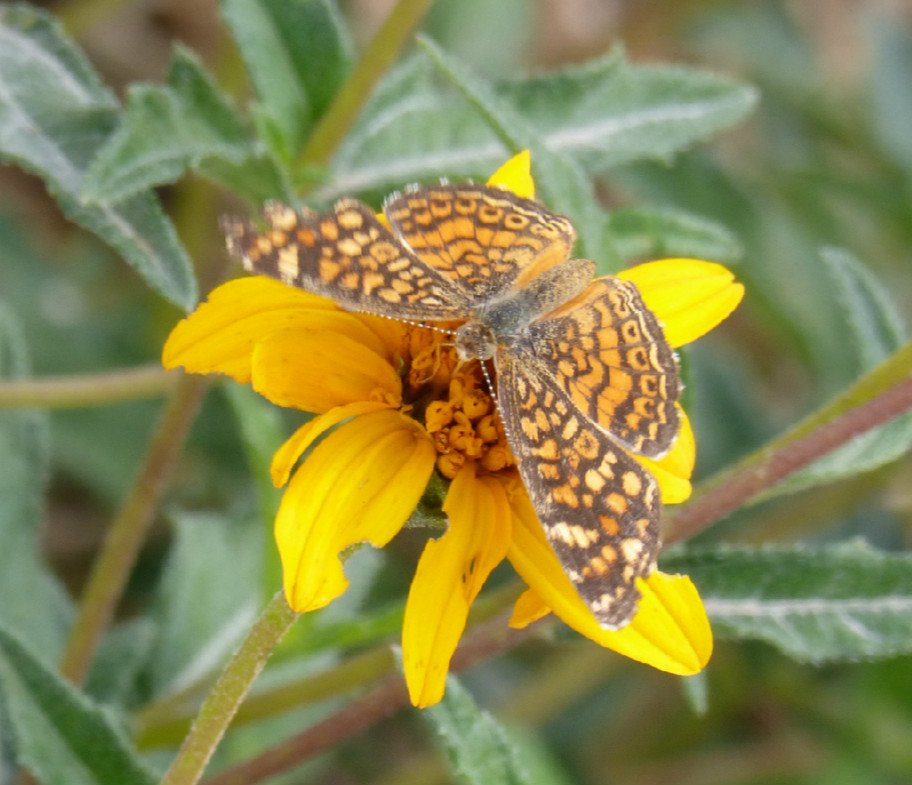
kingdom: Animalia
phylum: Arthropoda
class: Insecta
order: Lepidoptera
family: Nymphalidae
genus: Phyciodes
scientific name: Phyciodes vesta
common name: Vesta Crescent
